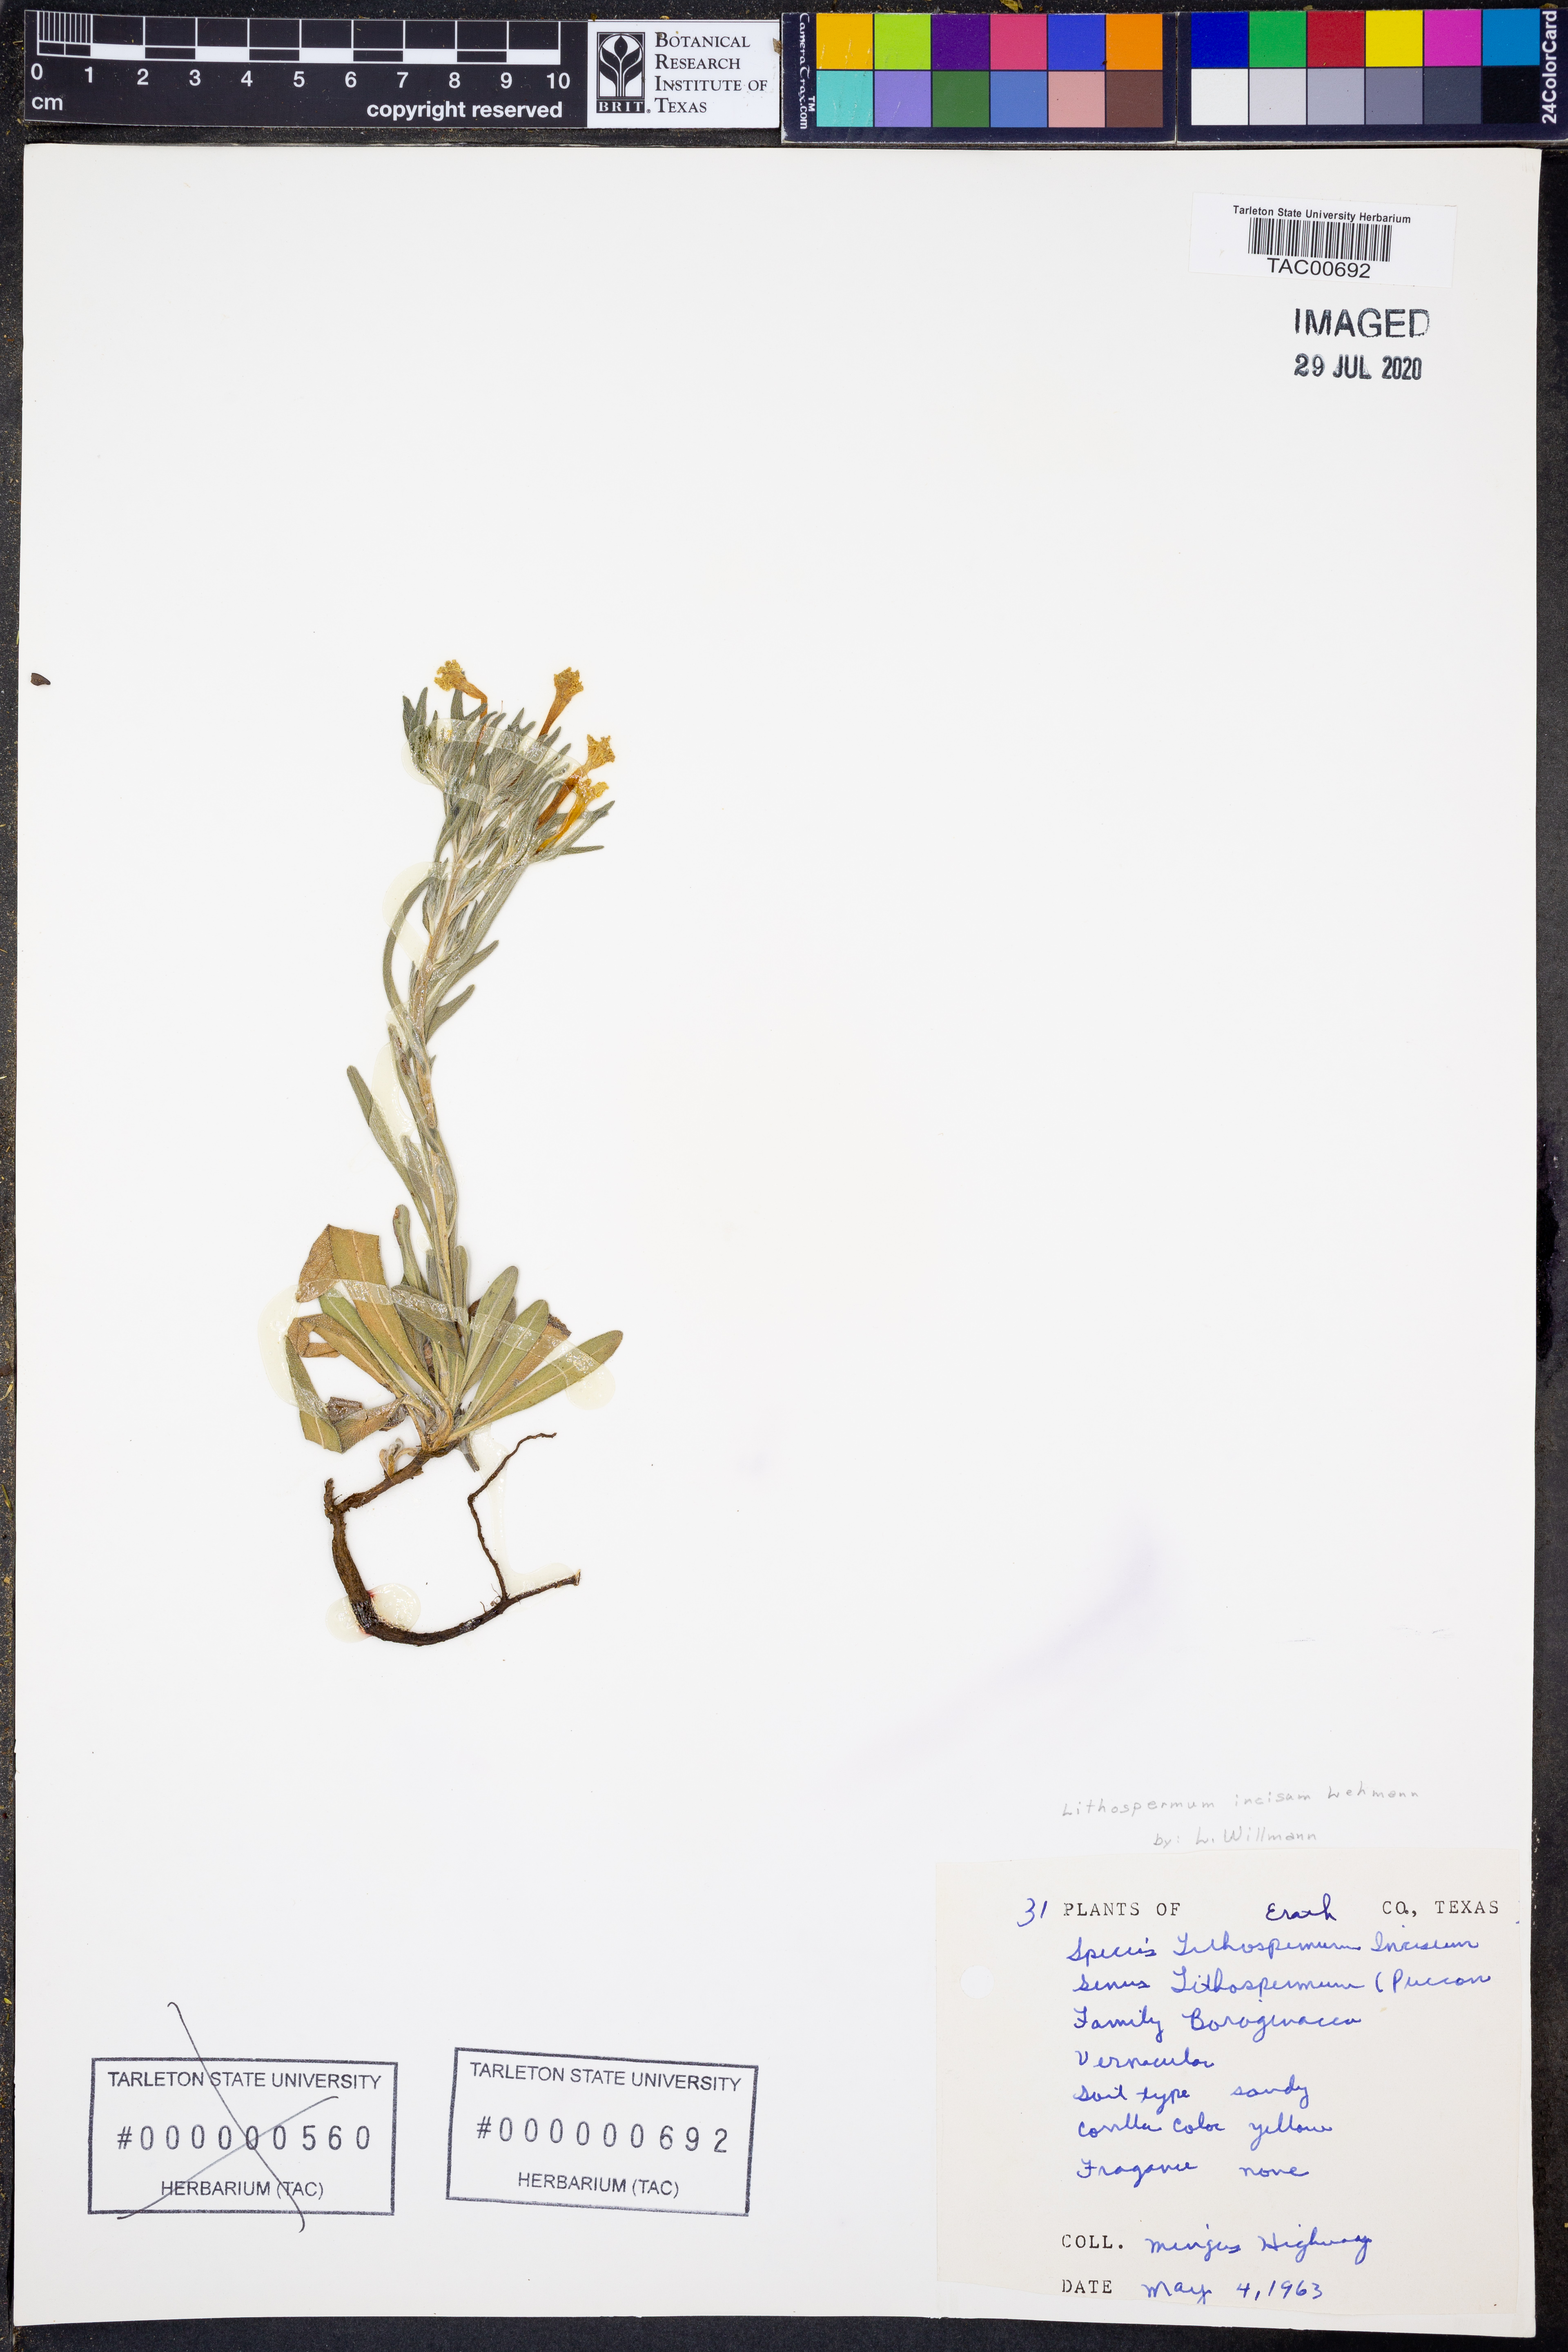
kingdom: Plantae
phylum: Tracheophyta
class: Magnoliopsida
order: Boraginales
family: Boraginaceae
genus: Lithospermum
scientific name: Lithospermum incisum
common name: Fringed gromwell
